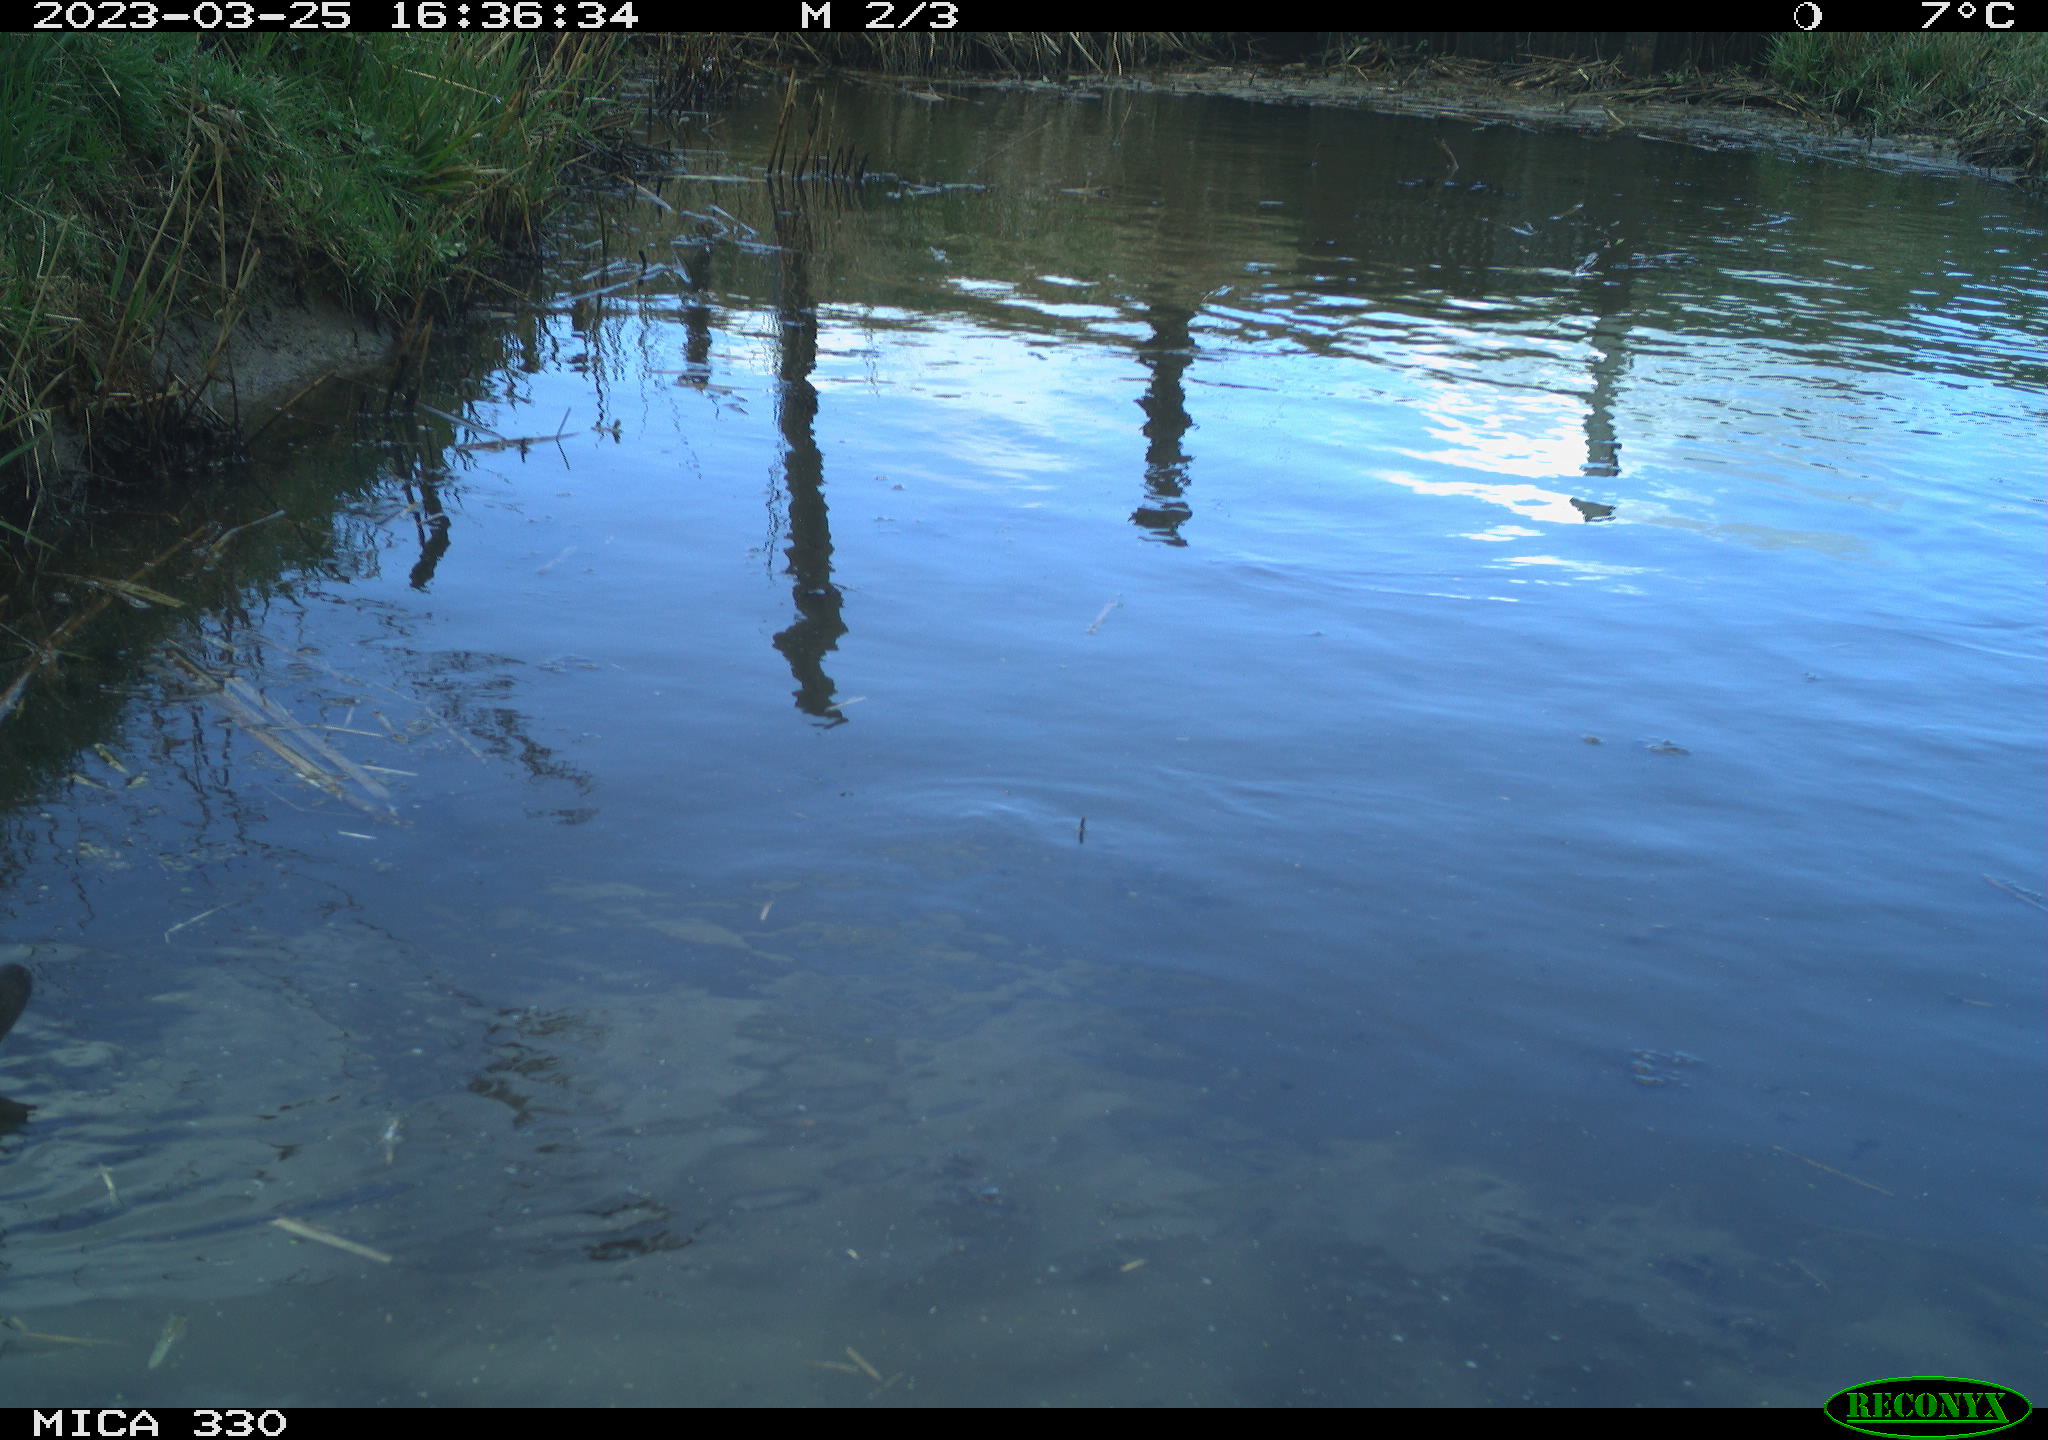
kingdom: Animalia
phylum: Chordata
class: Aves
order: Gruiformes
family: Rallidae
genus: Gallinula
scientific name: Gallinula chloropus
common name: Common moorhen
